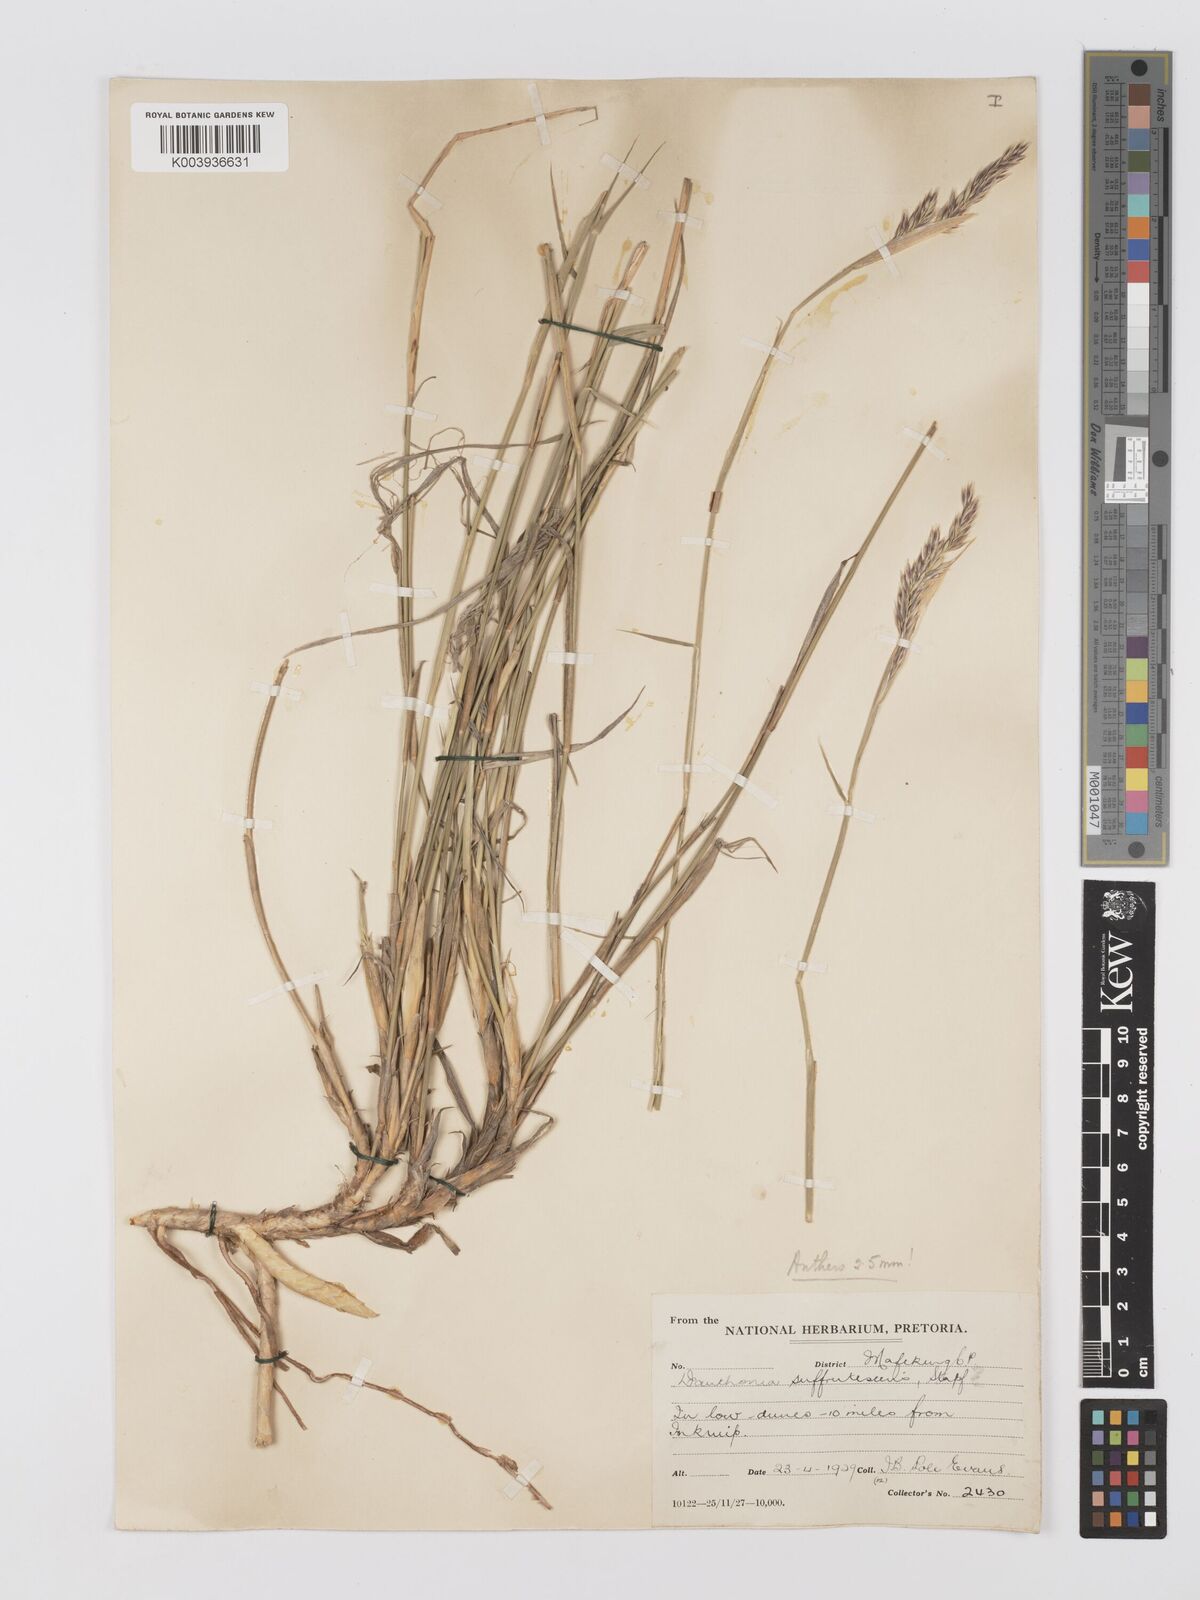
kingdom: Plantae
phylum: Tracheophyta
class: Liliopsida
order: Poales
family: Poaceae
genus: Centropodia
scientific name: Centropodia glauca
